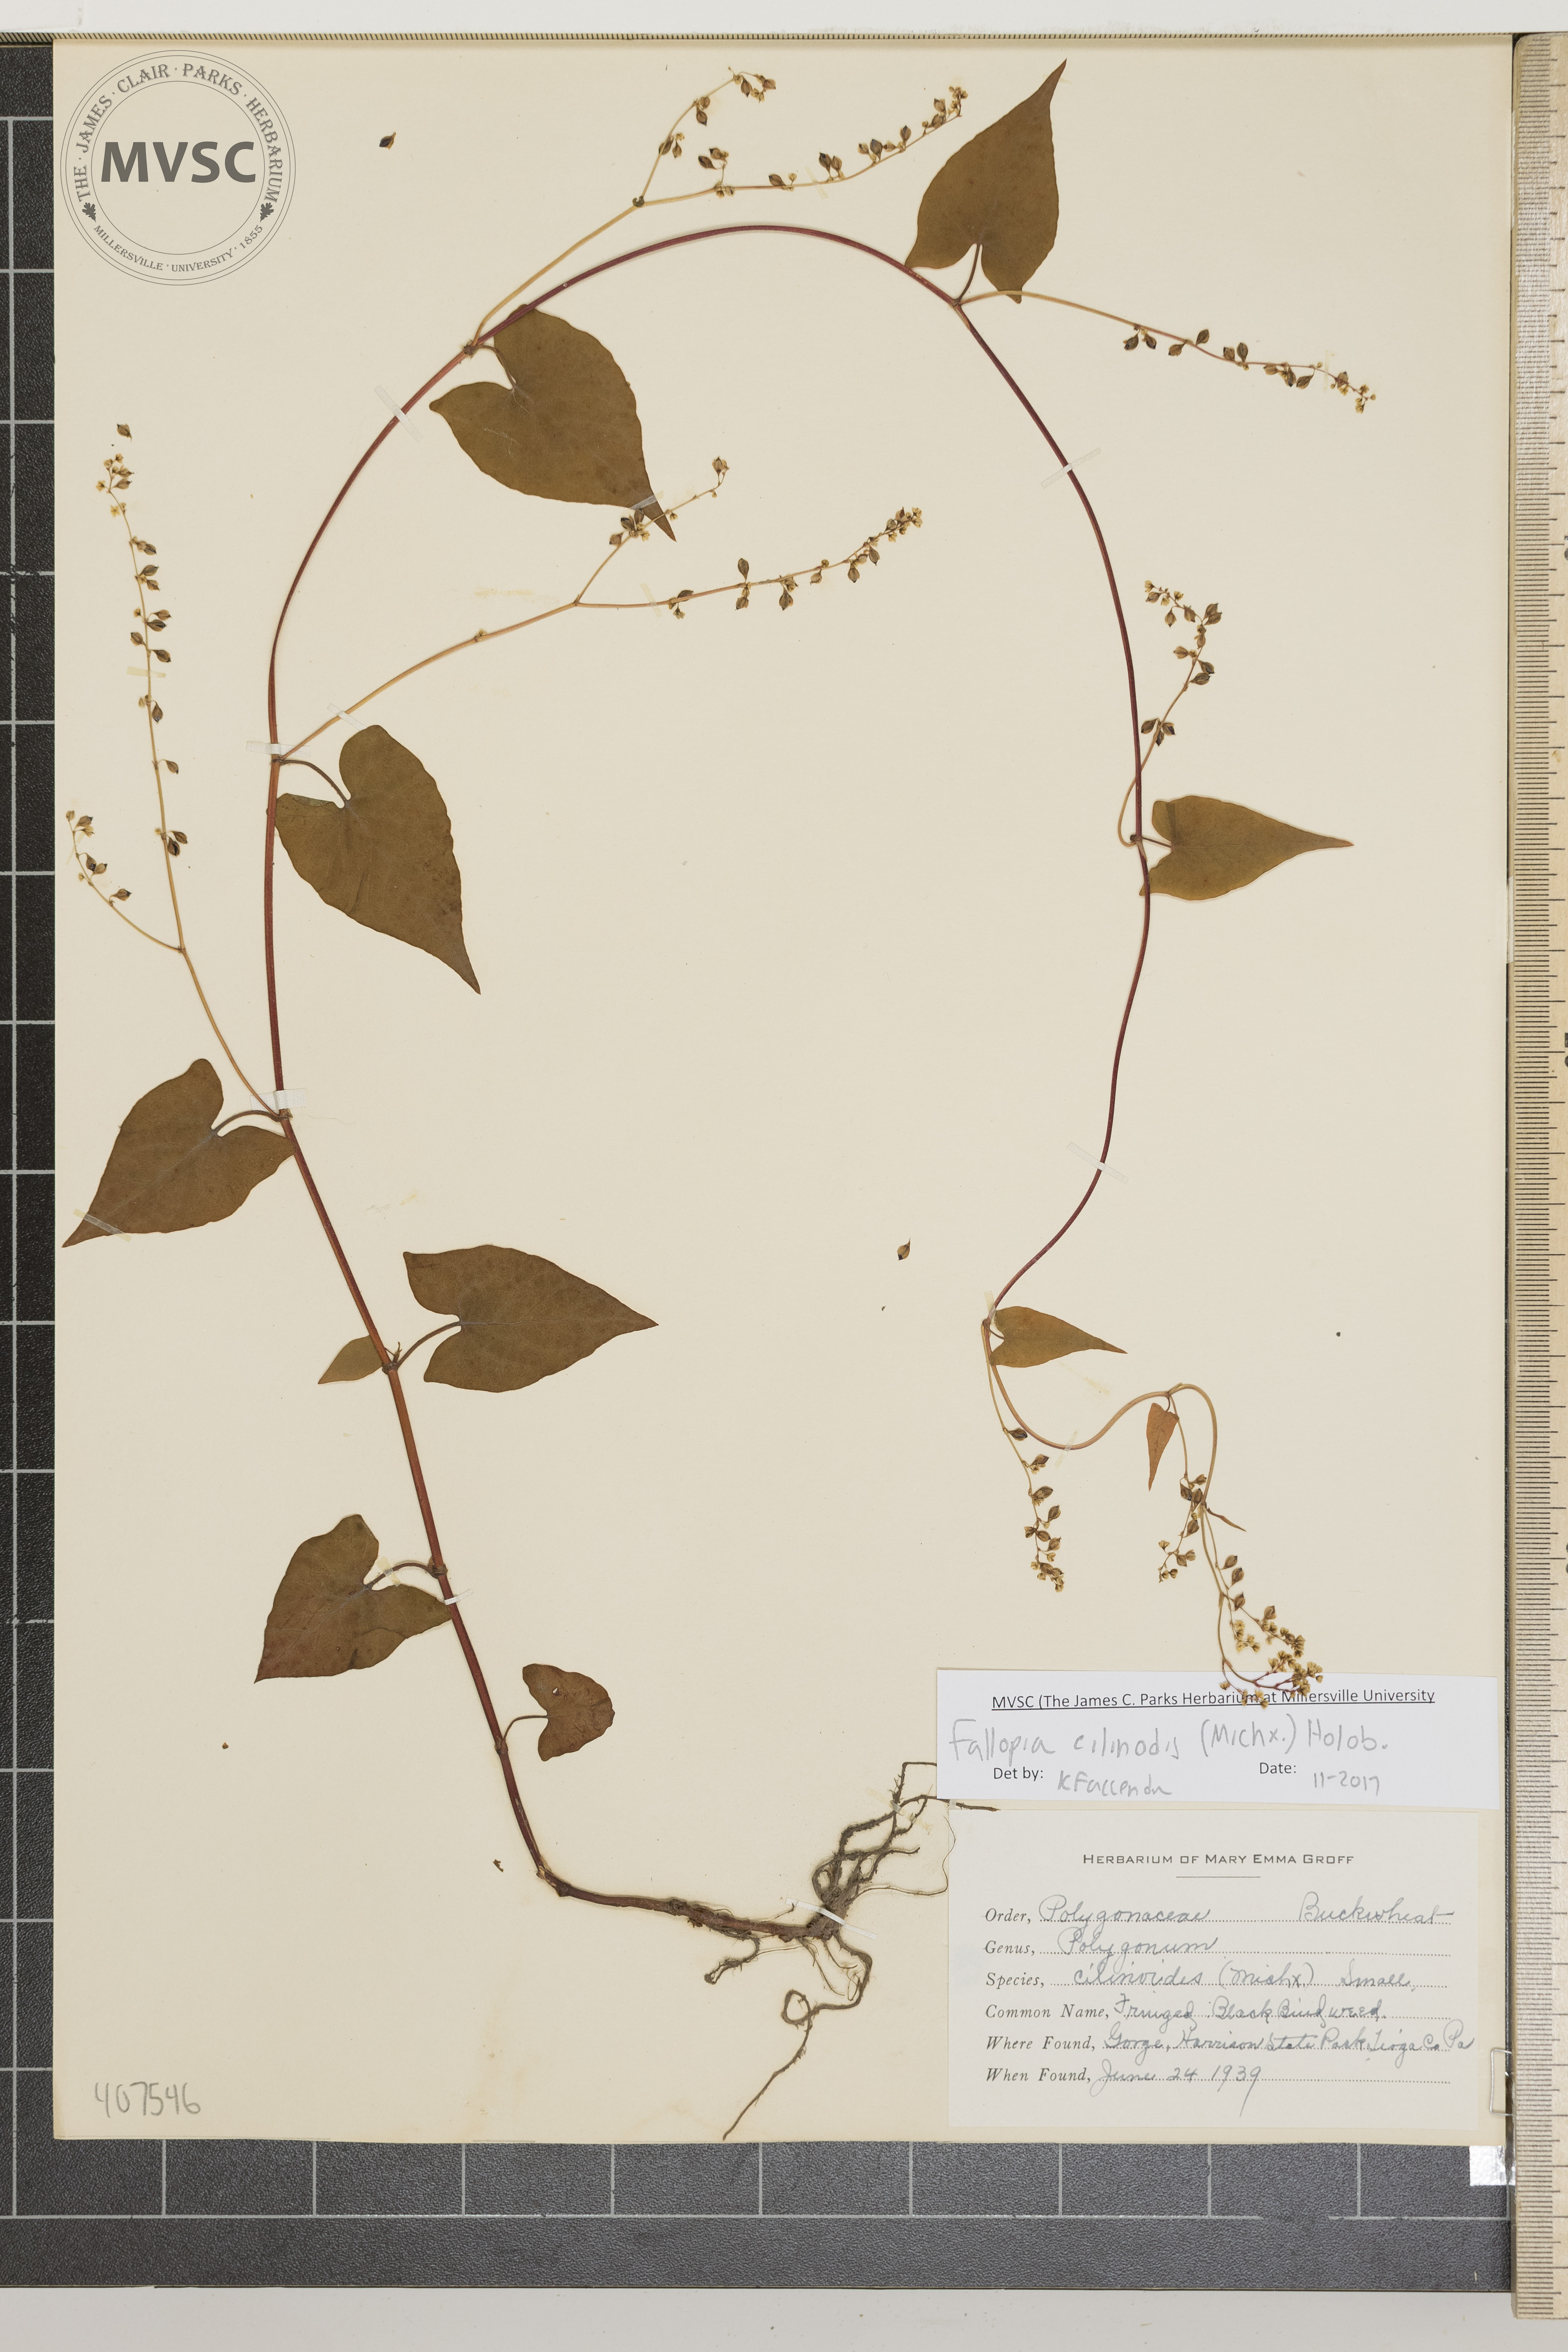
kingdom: Plantae
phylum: Tracheophyta
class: Magnoliopsida
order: Caryophyllales
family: Polygonaceae
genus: Parogonum
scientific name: Parogonum ciliinode
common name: fringed black bindweed
